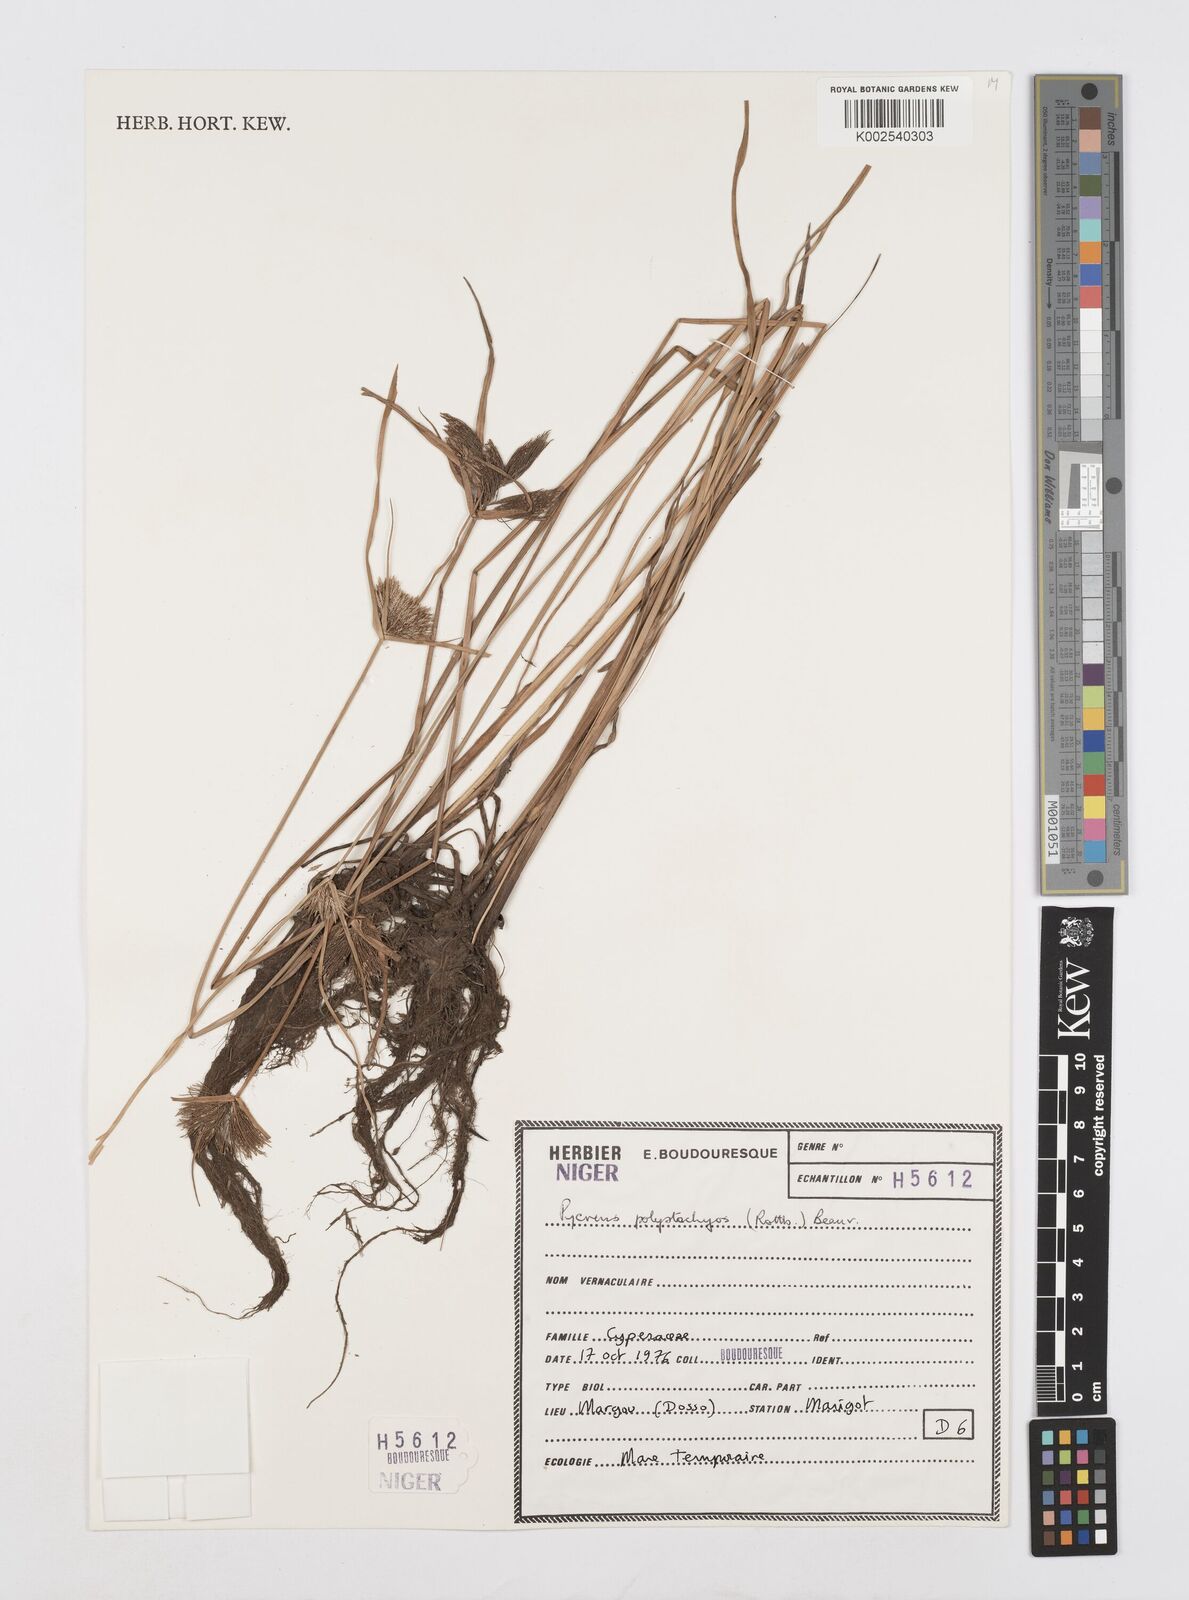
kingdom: Plantae
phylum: Tracheophyta
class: Liliopsida
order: Poales
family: Cyperaceae
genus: Cyperus
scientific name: Cyperus polystachyos
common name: Bunchy flat sedge
